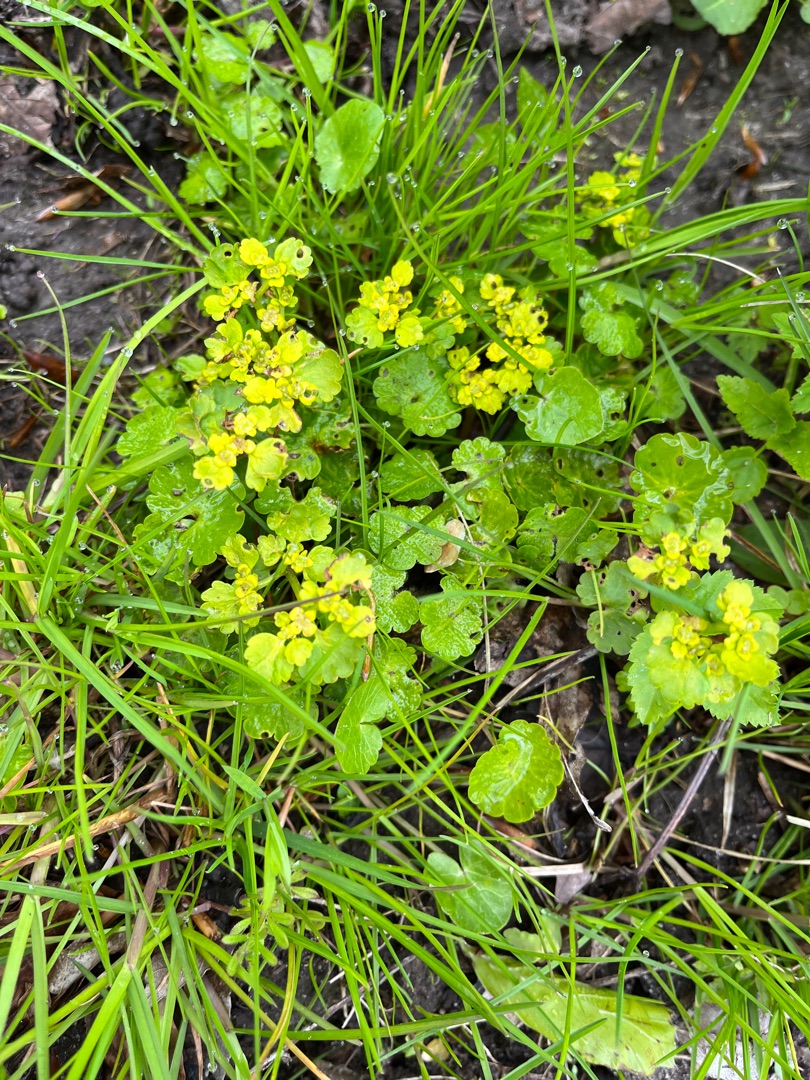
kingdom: Plantae
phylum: Tracheophyta
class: Magnoliopsida
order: Saxifragales
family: Saxifragaceae
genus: Chrysosplenium
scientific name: Chrysosplenium alternifolium
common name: Almindelig milturt
